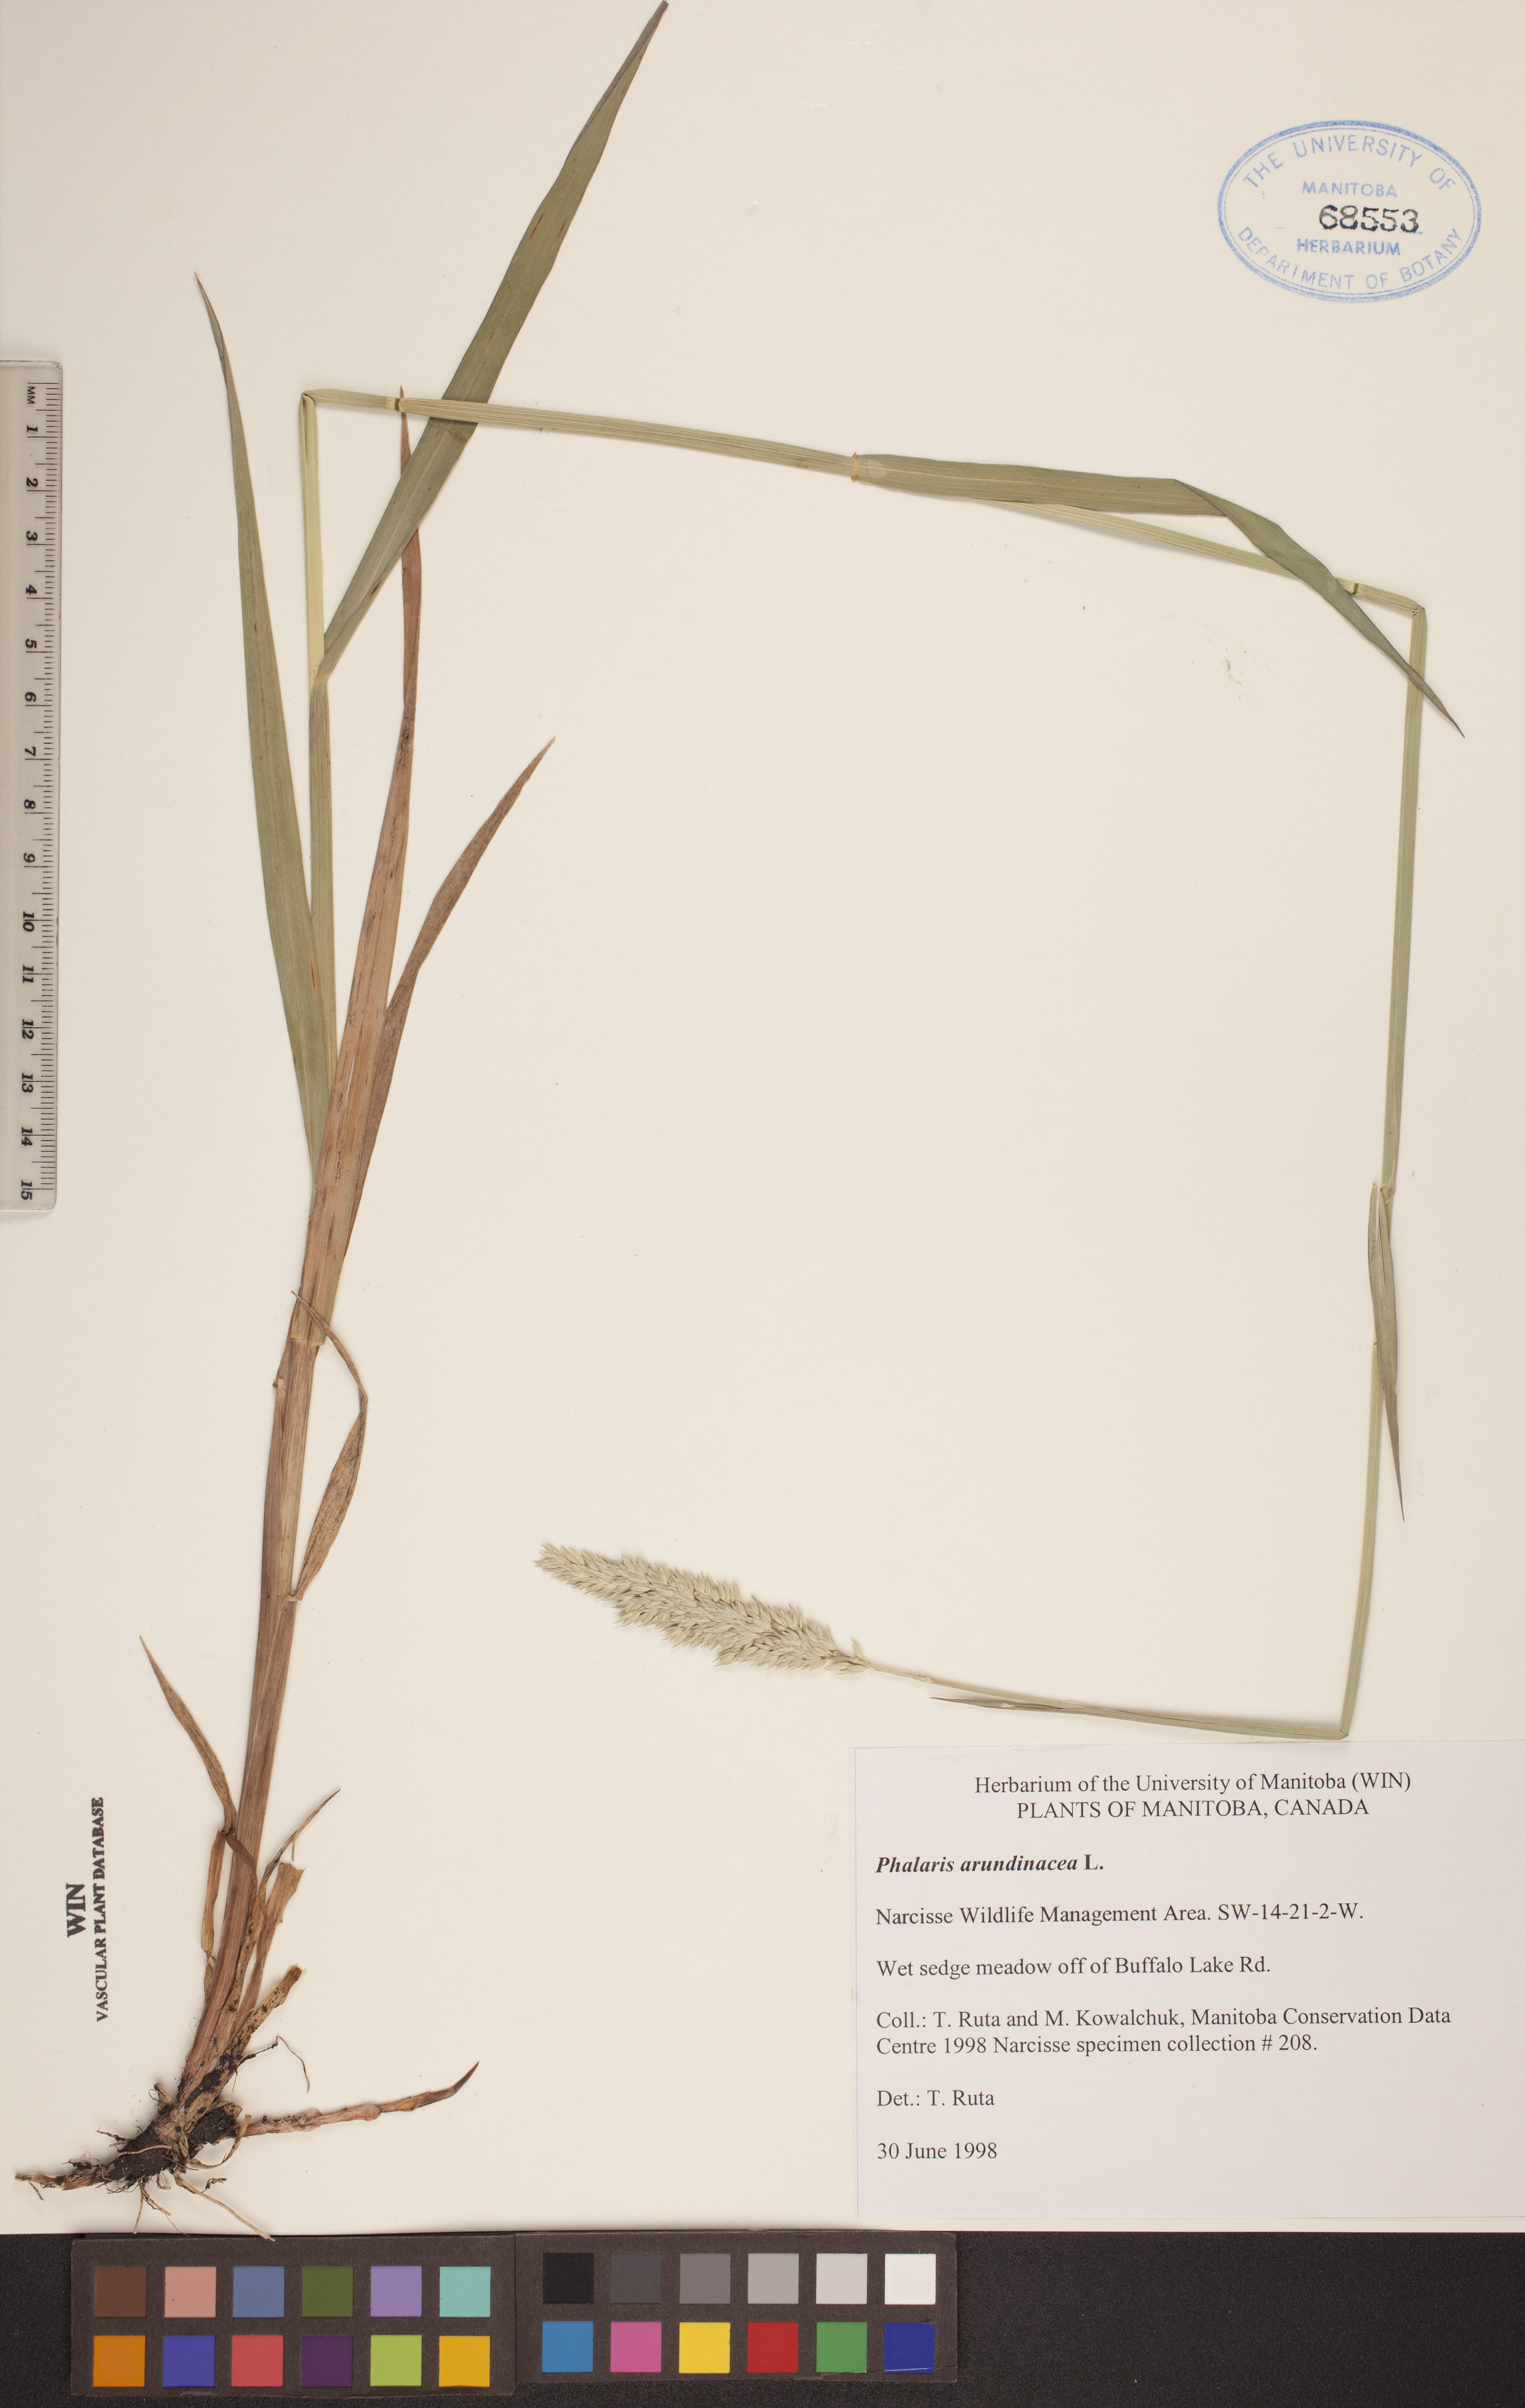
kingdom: Plantae
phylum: Tracheophyta
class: Liliopsida
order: Poales
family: Poaceae
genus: Phalaris
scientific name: Phalaris arundinacea
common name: Reed canary-grass
